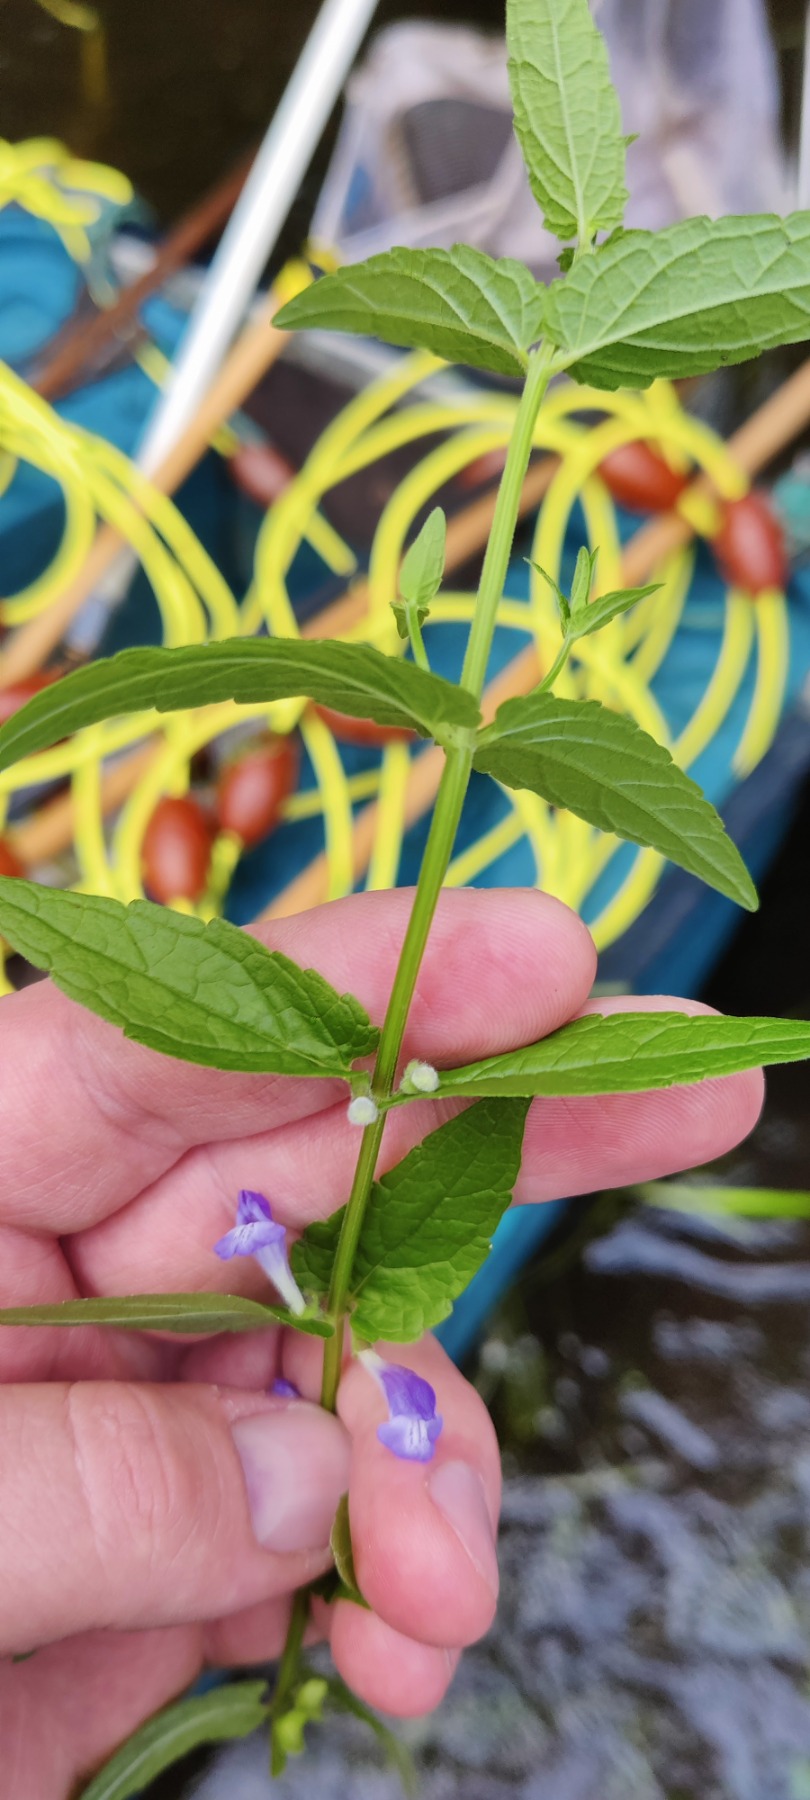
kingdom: Plantae
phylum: Tracheophyta
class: Magnoliopsida
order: Lamiales
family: Lamiaceae
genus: Scutellaria
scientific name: Scutellaria galericulata
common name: Almindelig skjolddrager
